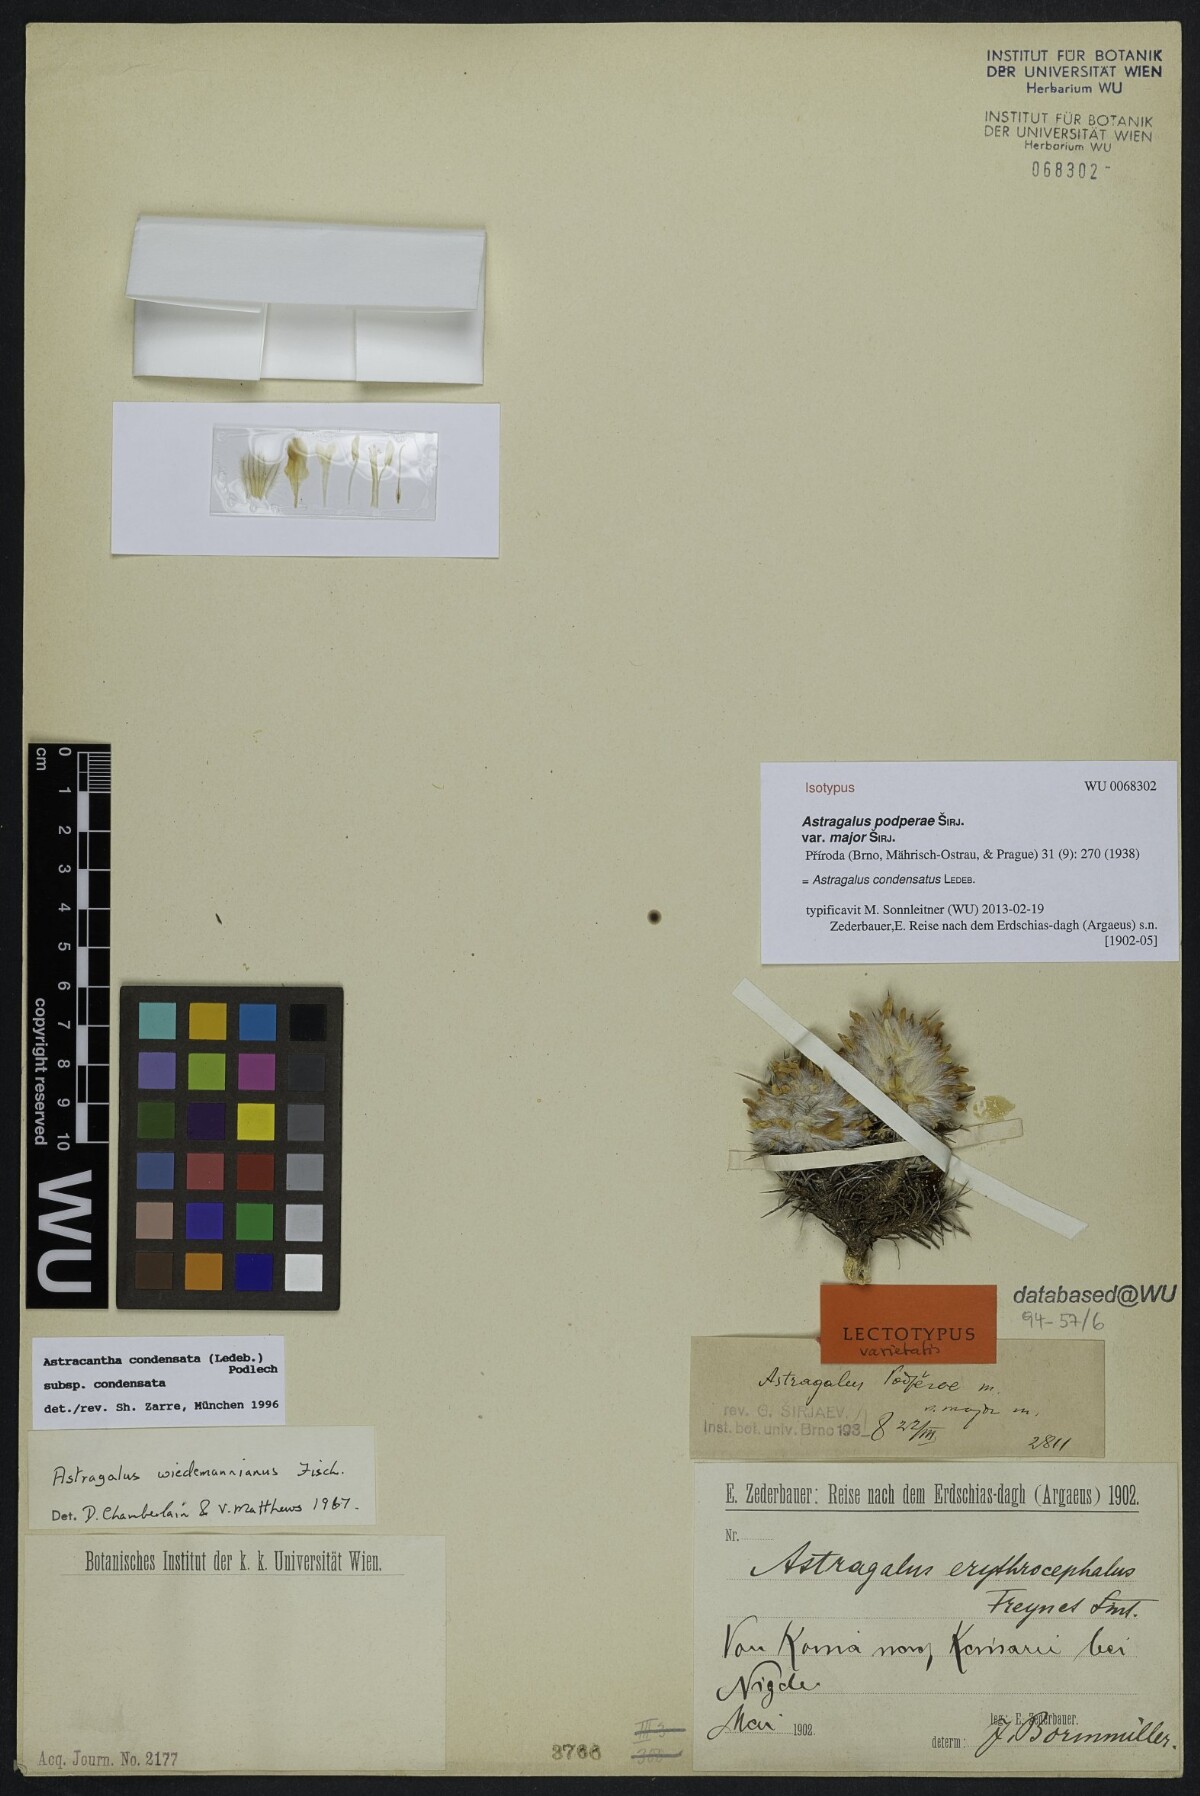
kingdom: Plantae
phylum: Tracheophyta
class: Magnoliopsida
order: Fabales
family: Fabaceae
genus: Astragalus
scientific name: Astragalus condensatus
